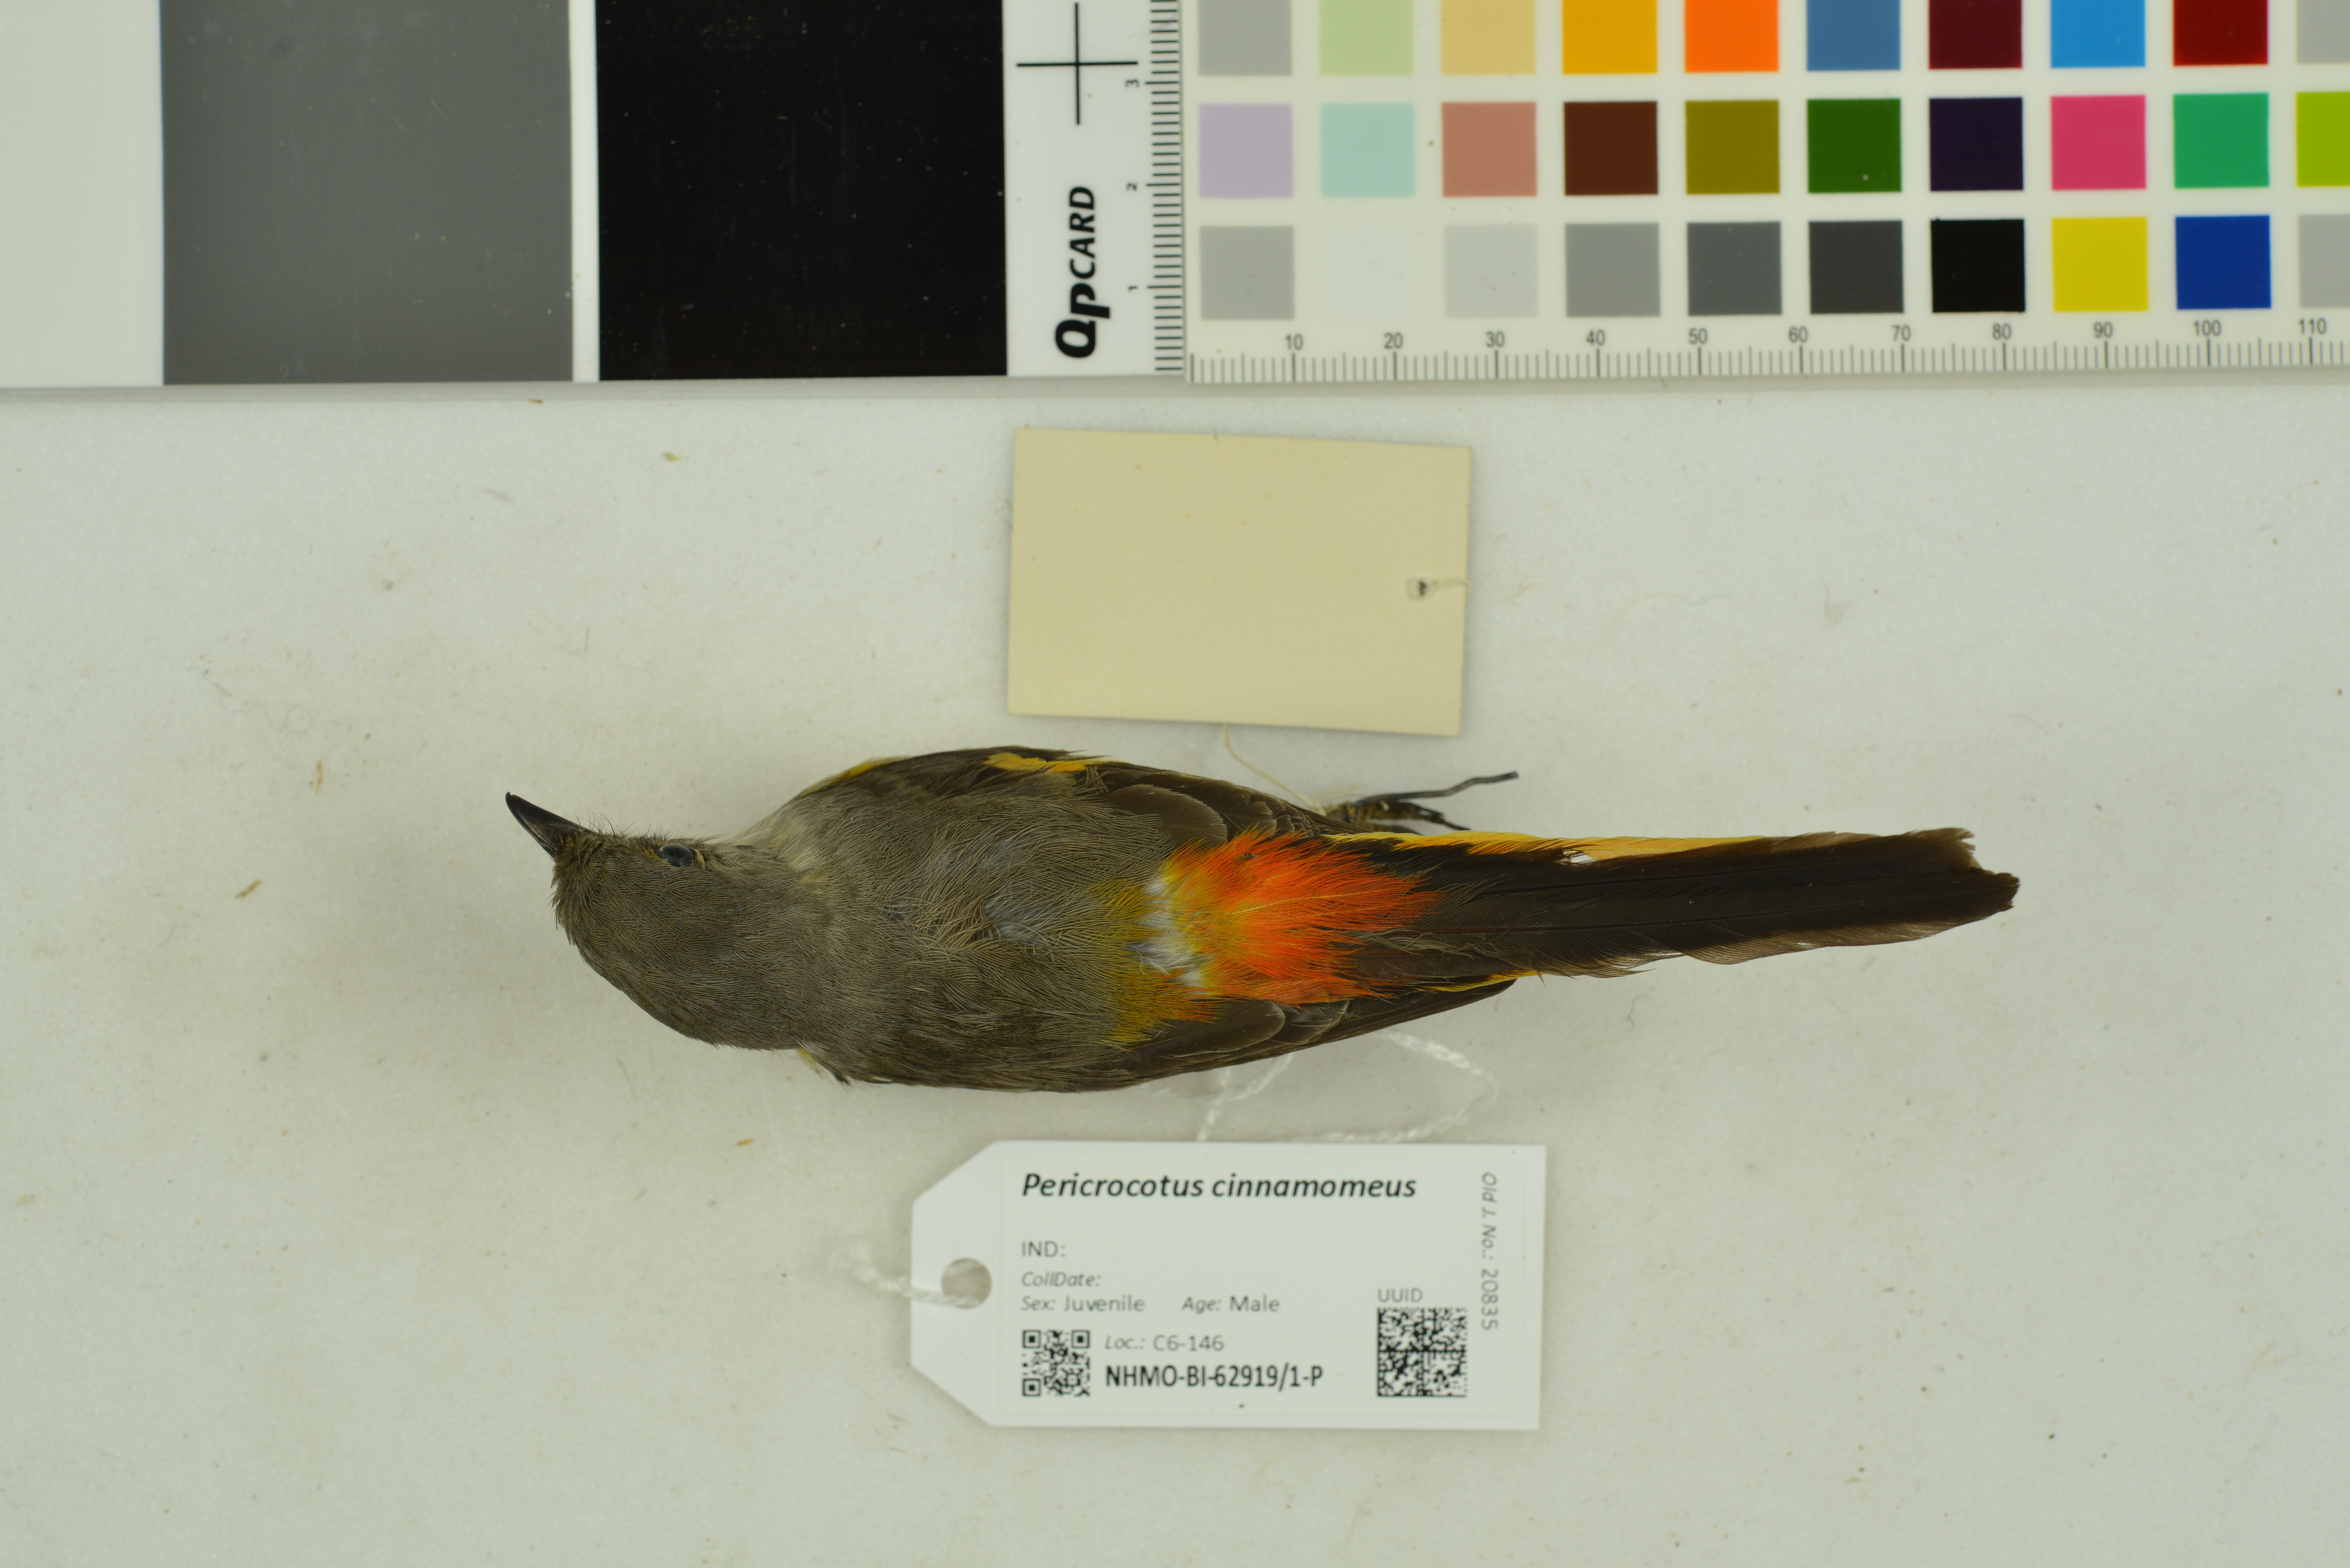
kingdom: Animalia
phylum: Chordata
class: Aves
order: Passeriformes
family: Campephagidae
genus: Pericrocotus
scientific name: Pericrocotus cinnamomeus
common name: Small minivet
